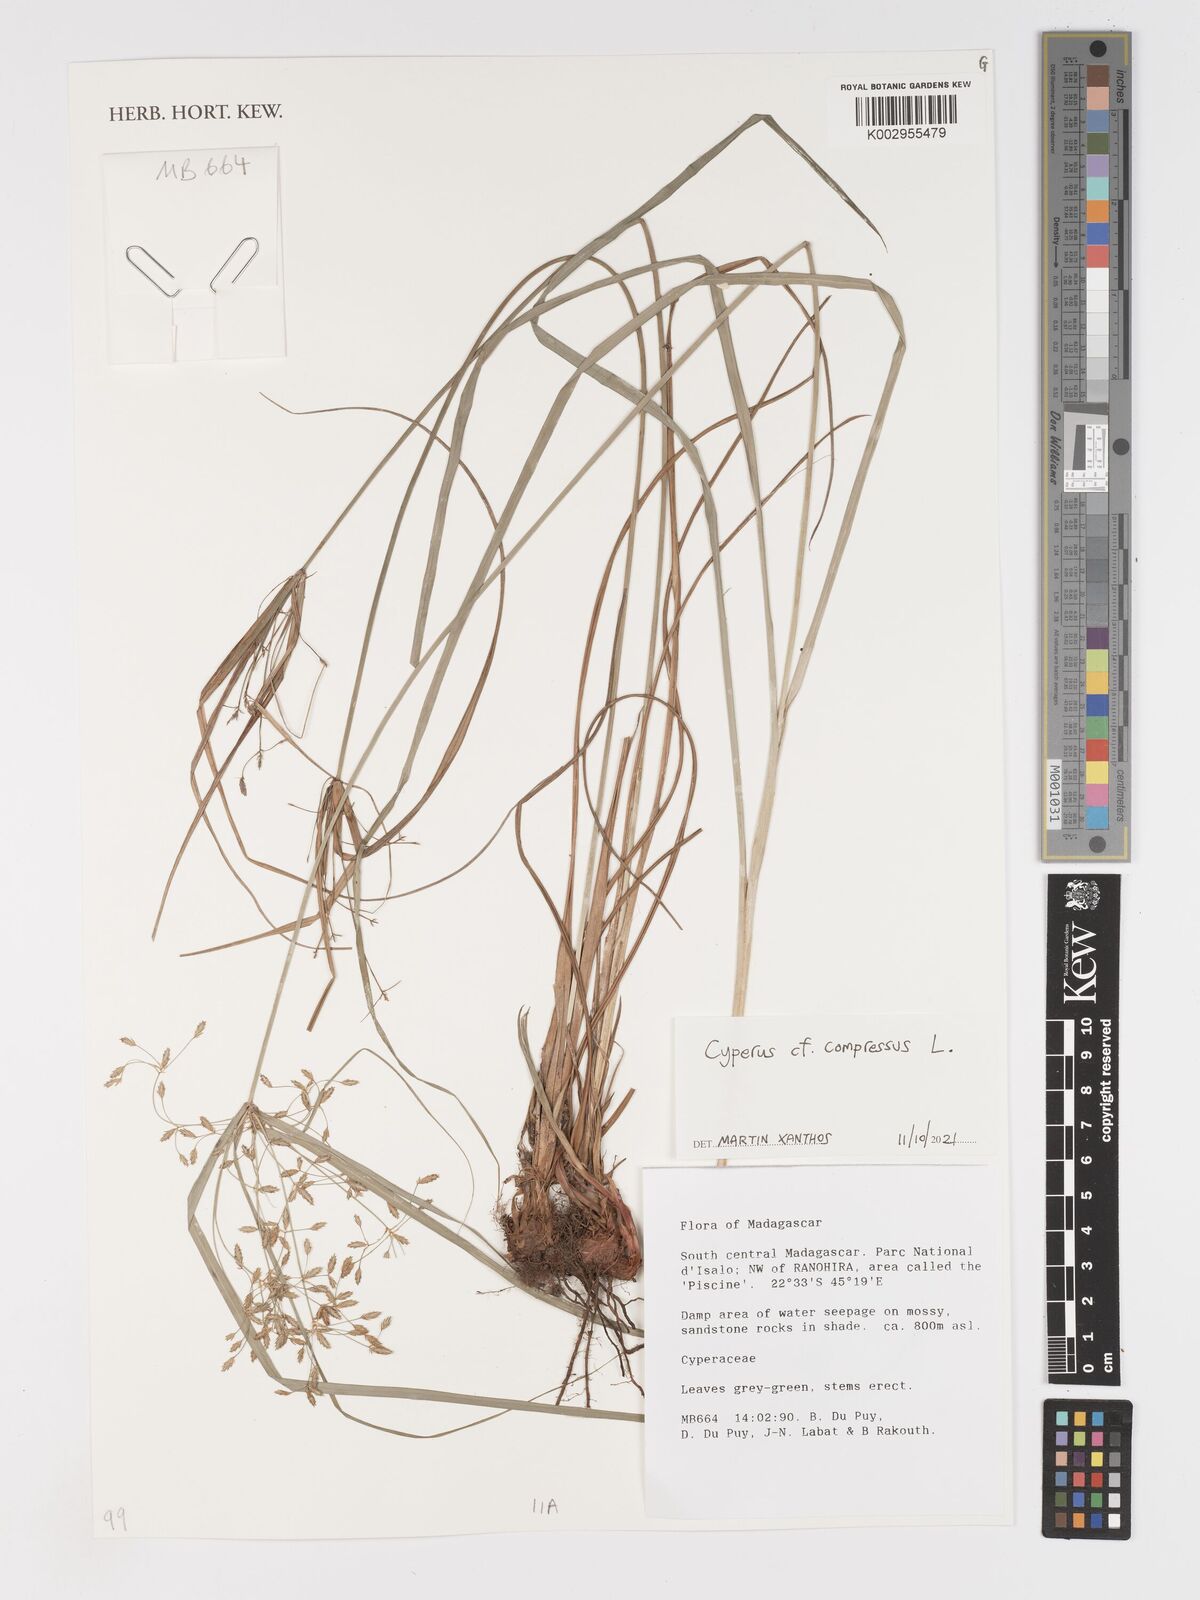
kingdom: Plantae
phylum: Tracheophyta
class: Liliopsida
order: Poales
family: Cyperaceae
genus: Cyperus
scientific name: Cyperus compressus
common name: Poorland flatsedge
